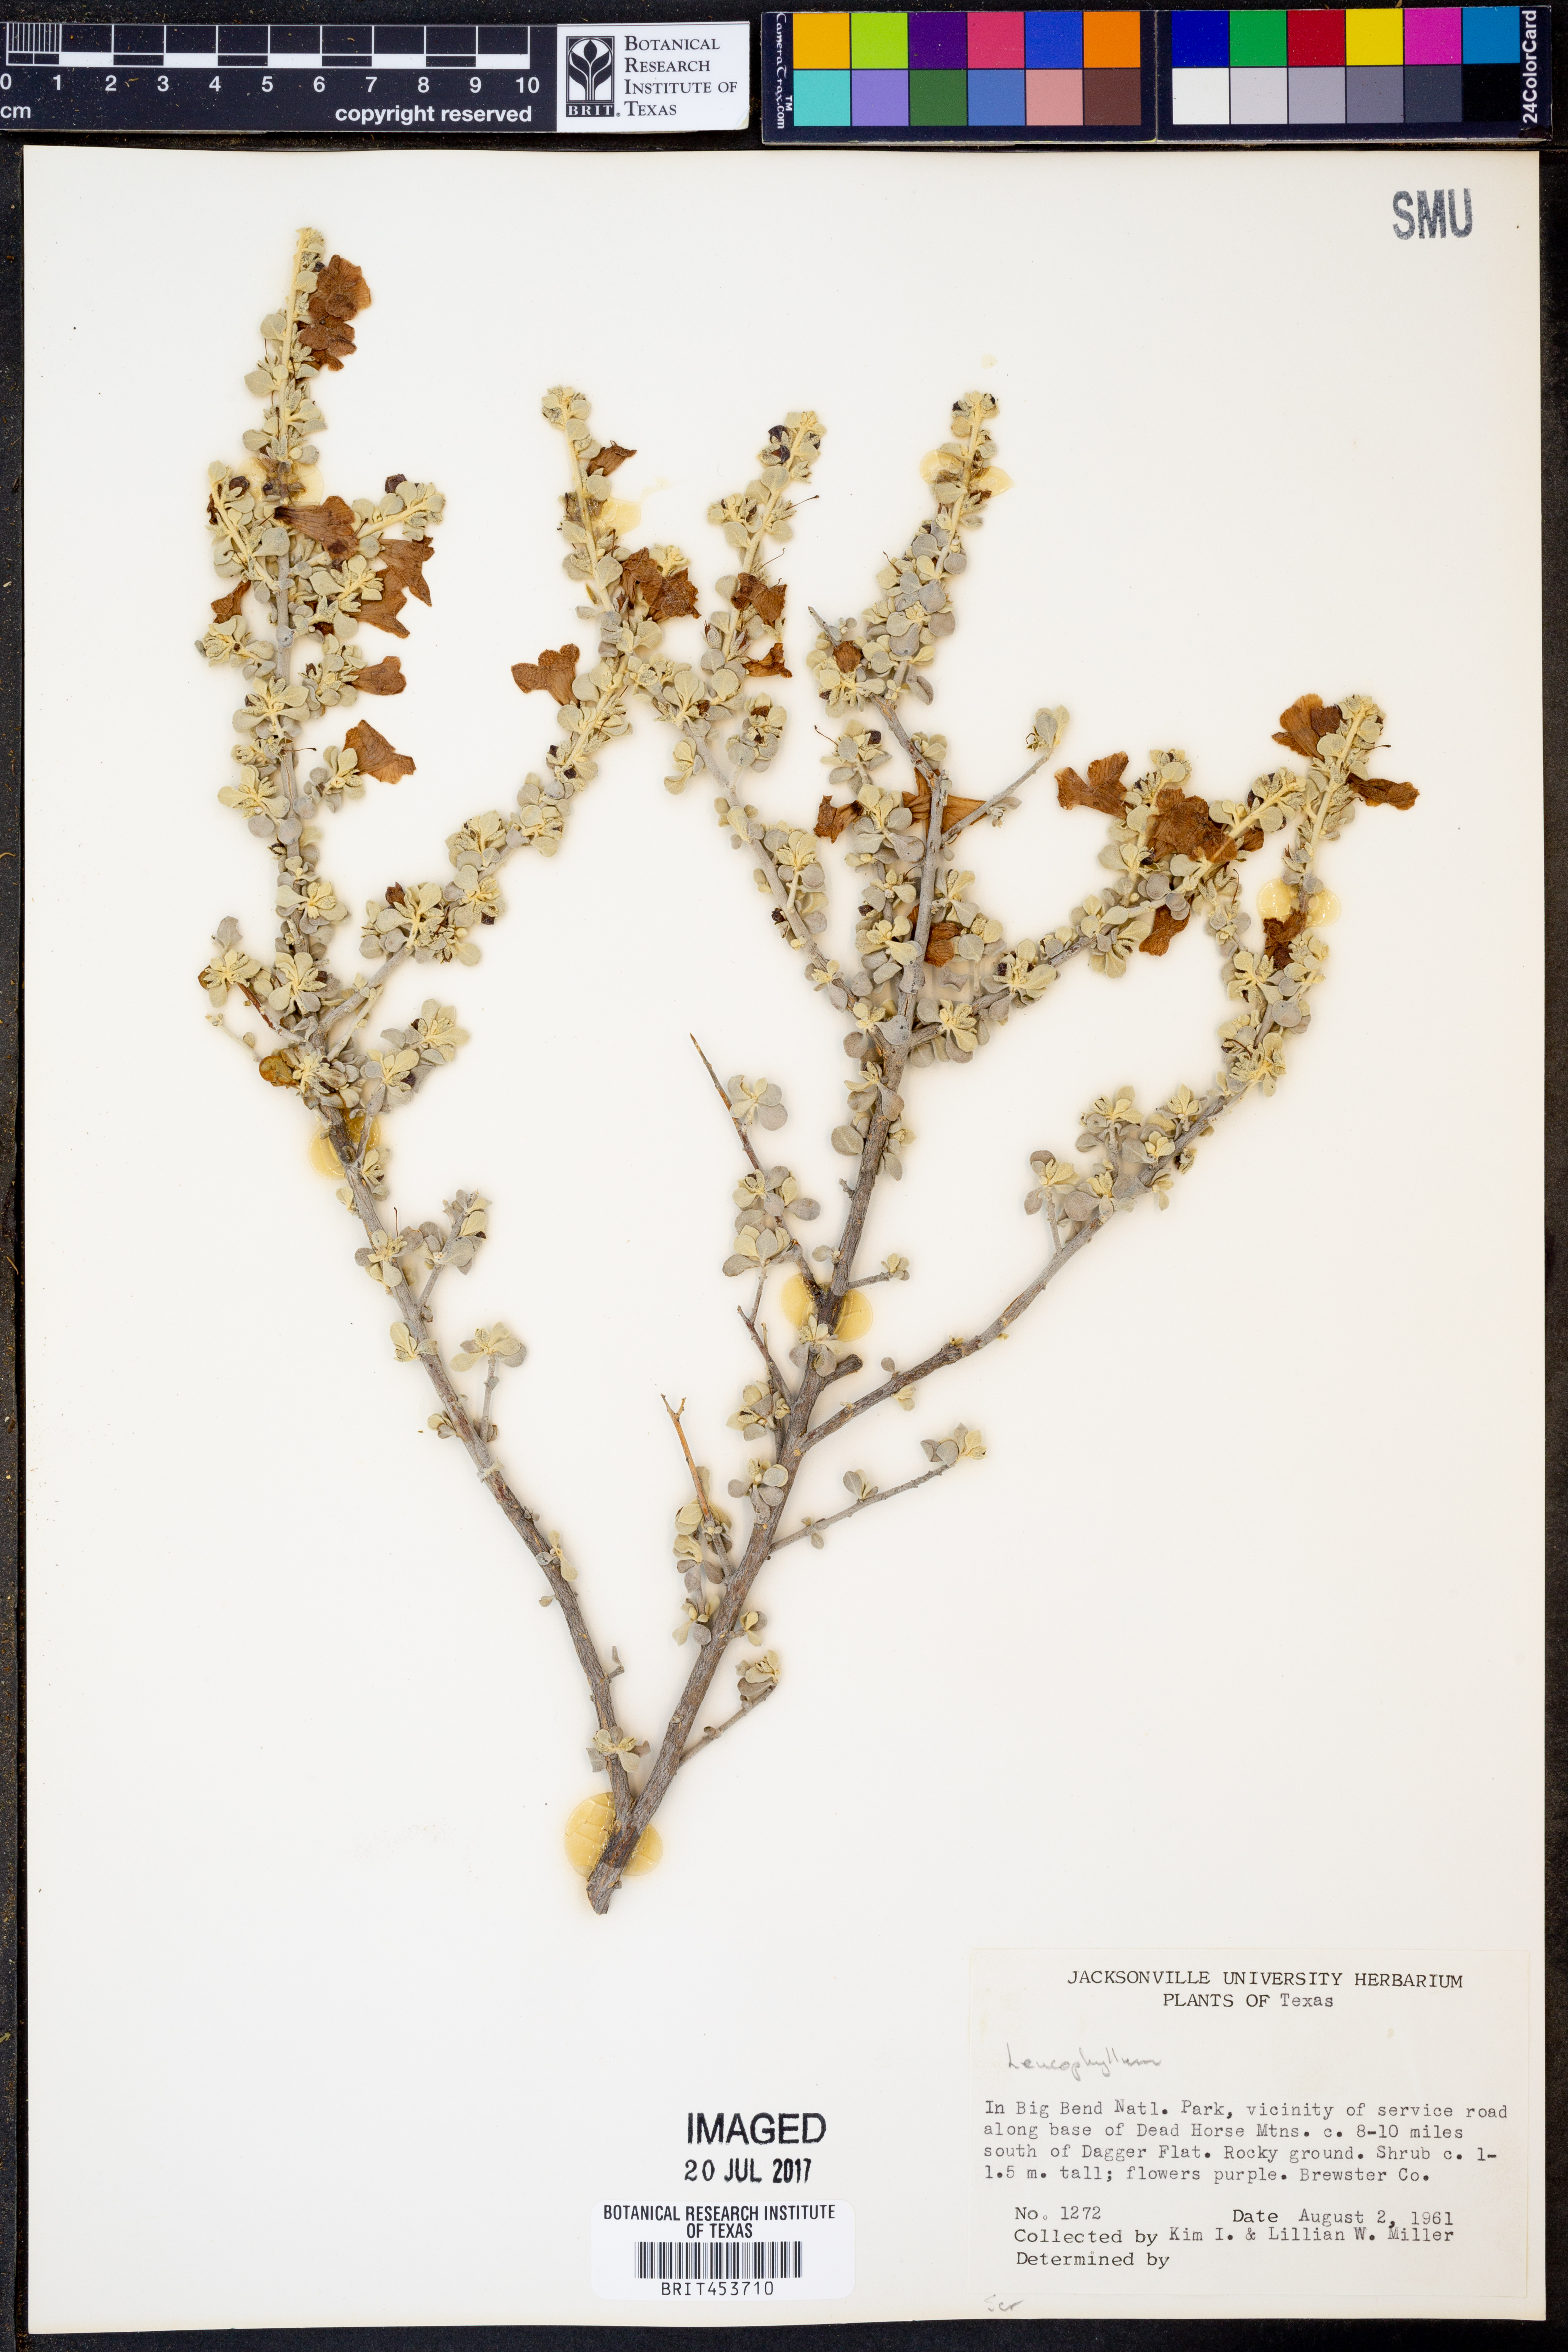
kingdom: Plantae
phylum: Tracheophyta
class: Magnoliopsida
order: Lamiales
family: Scrophulariaceae
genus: Leucophyllum
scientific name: Leucophyllum
